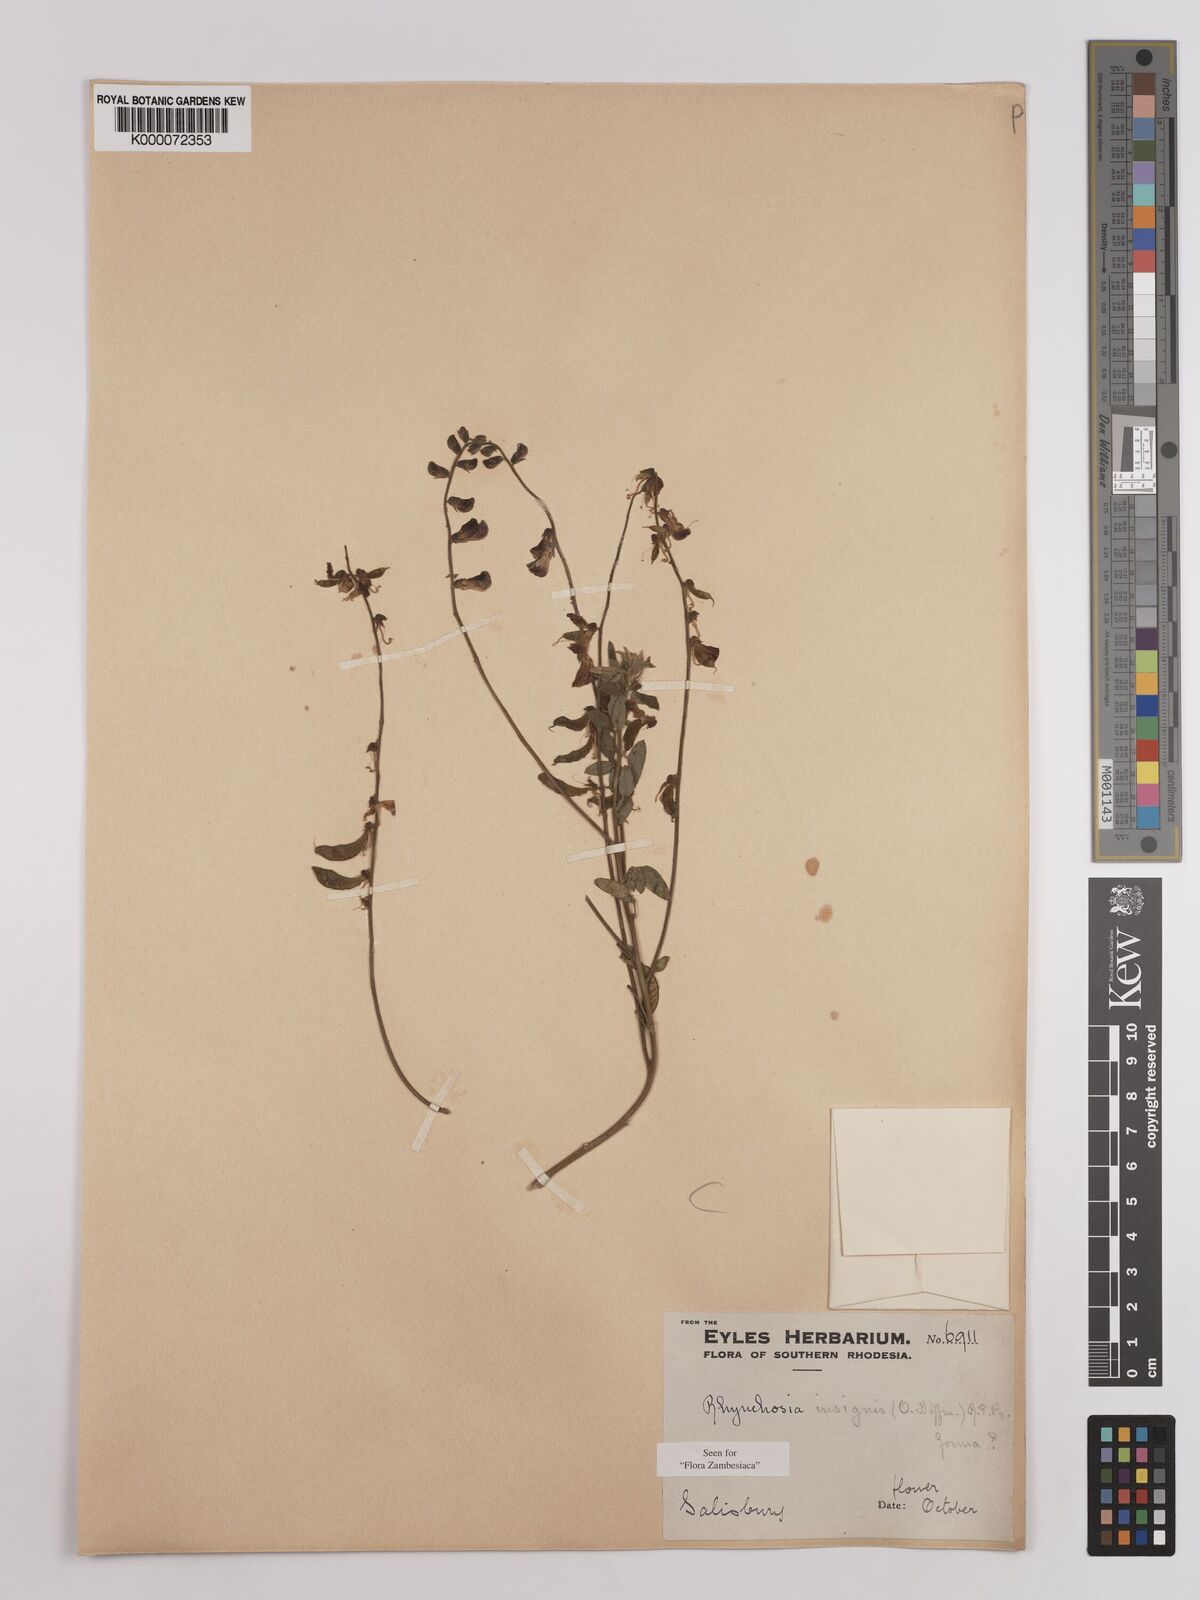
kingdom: Plantae
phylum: Tracheophyta
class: Magnoliopsida
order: Fabales
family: Fabaceae
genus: Rhynchosia
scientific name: Rhynchosia insignis
